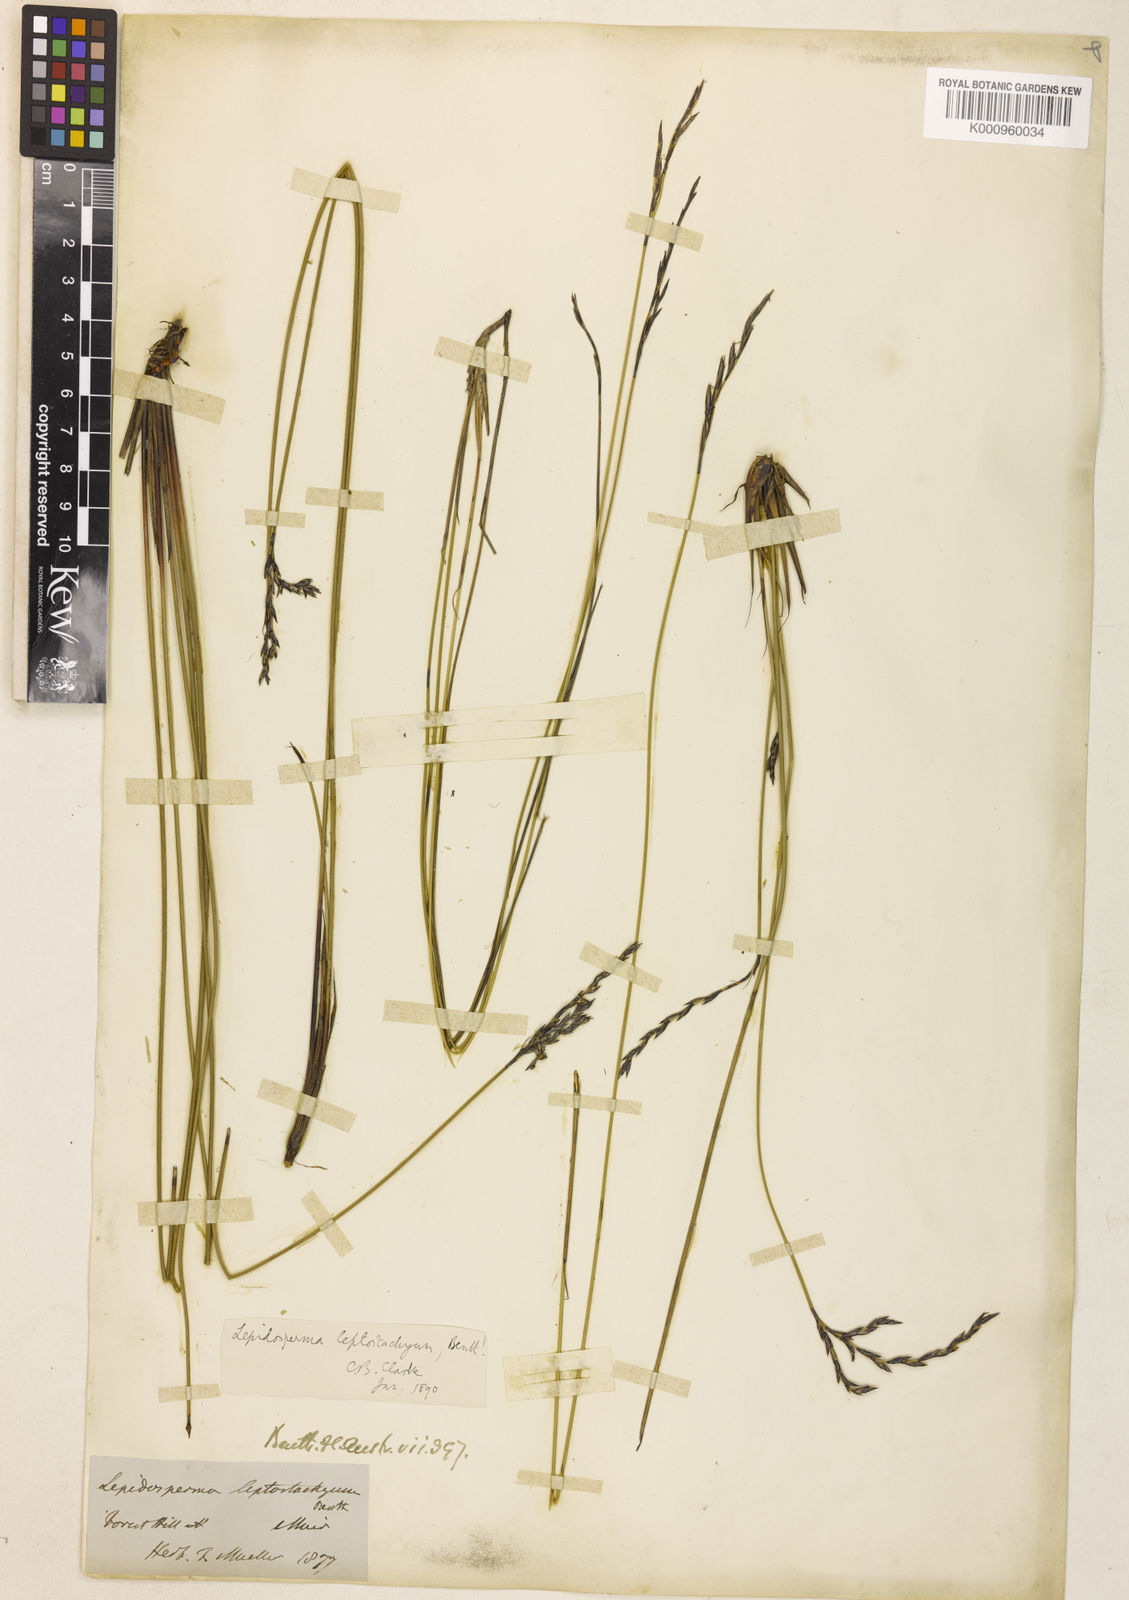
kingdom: Plantae
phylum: Tracheophyta
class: Liliopsida
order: Poales
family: Cyperaceae
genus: Lepidosperma
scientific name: Lepidosperma leptostachyum
